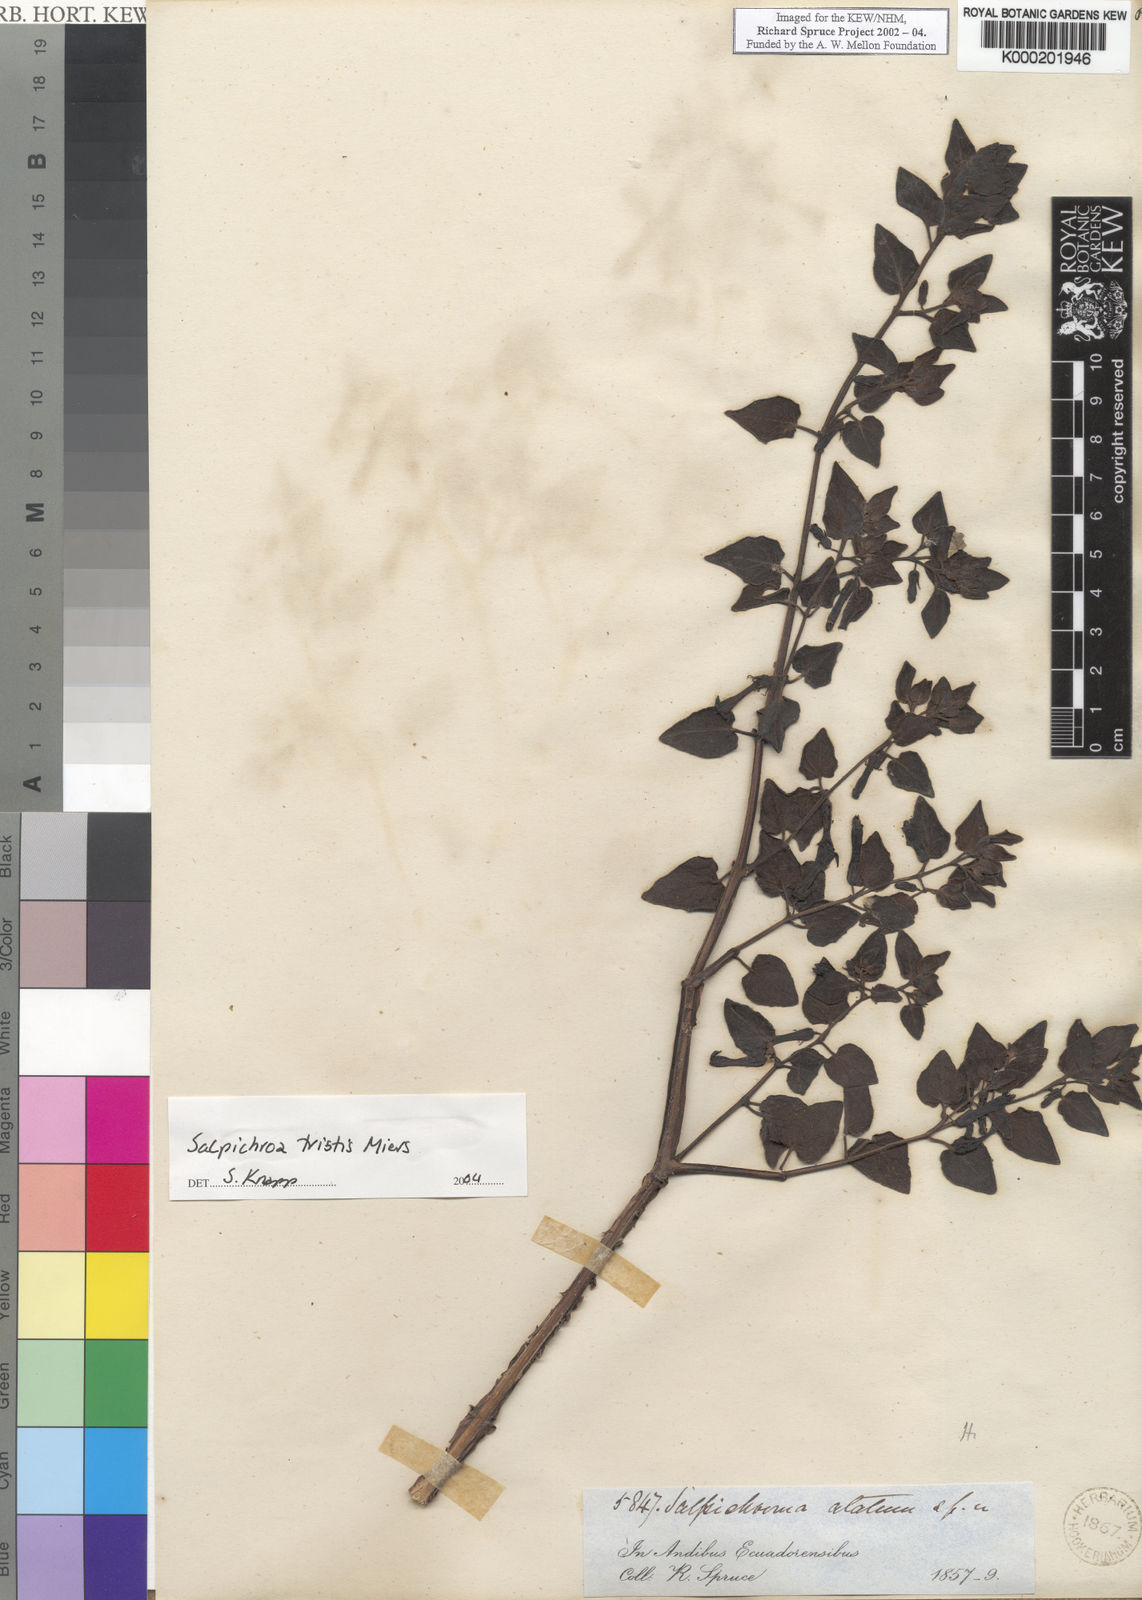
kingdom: Plantae
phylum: Tracheophyta
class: Magnoliopsida
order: Solanales
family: Solanaceae
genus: Salpichroa
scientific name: Salpichroa
